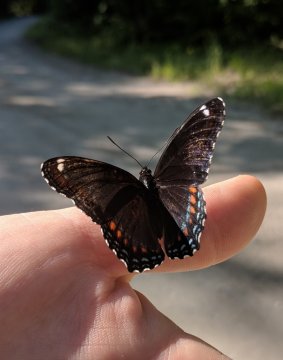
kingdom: Animalia
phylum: Arthropoda
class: Insecta
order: Lepidoptera
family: Nymphalidae
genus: Limenitis
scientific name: Limenitis arthemis
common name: Red-spotted Admiral
